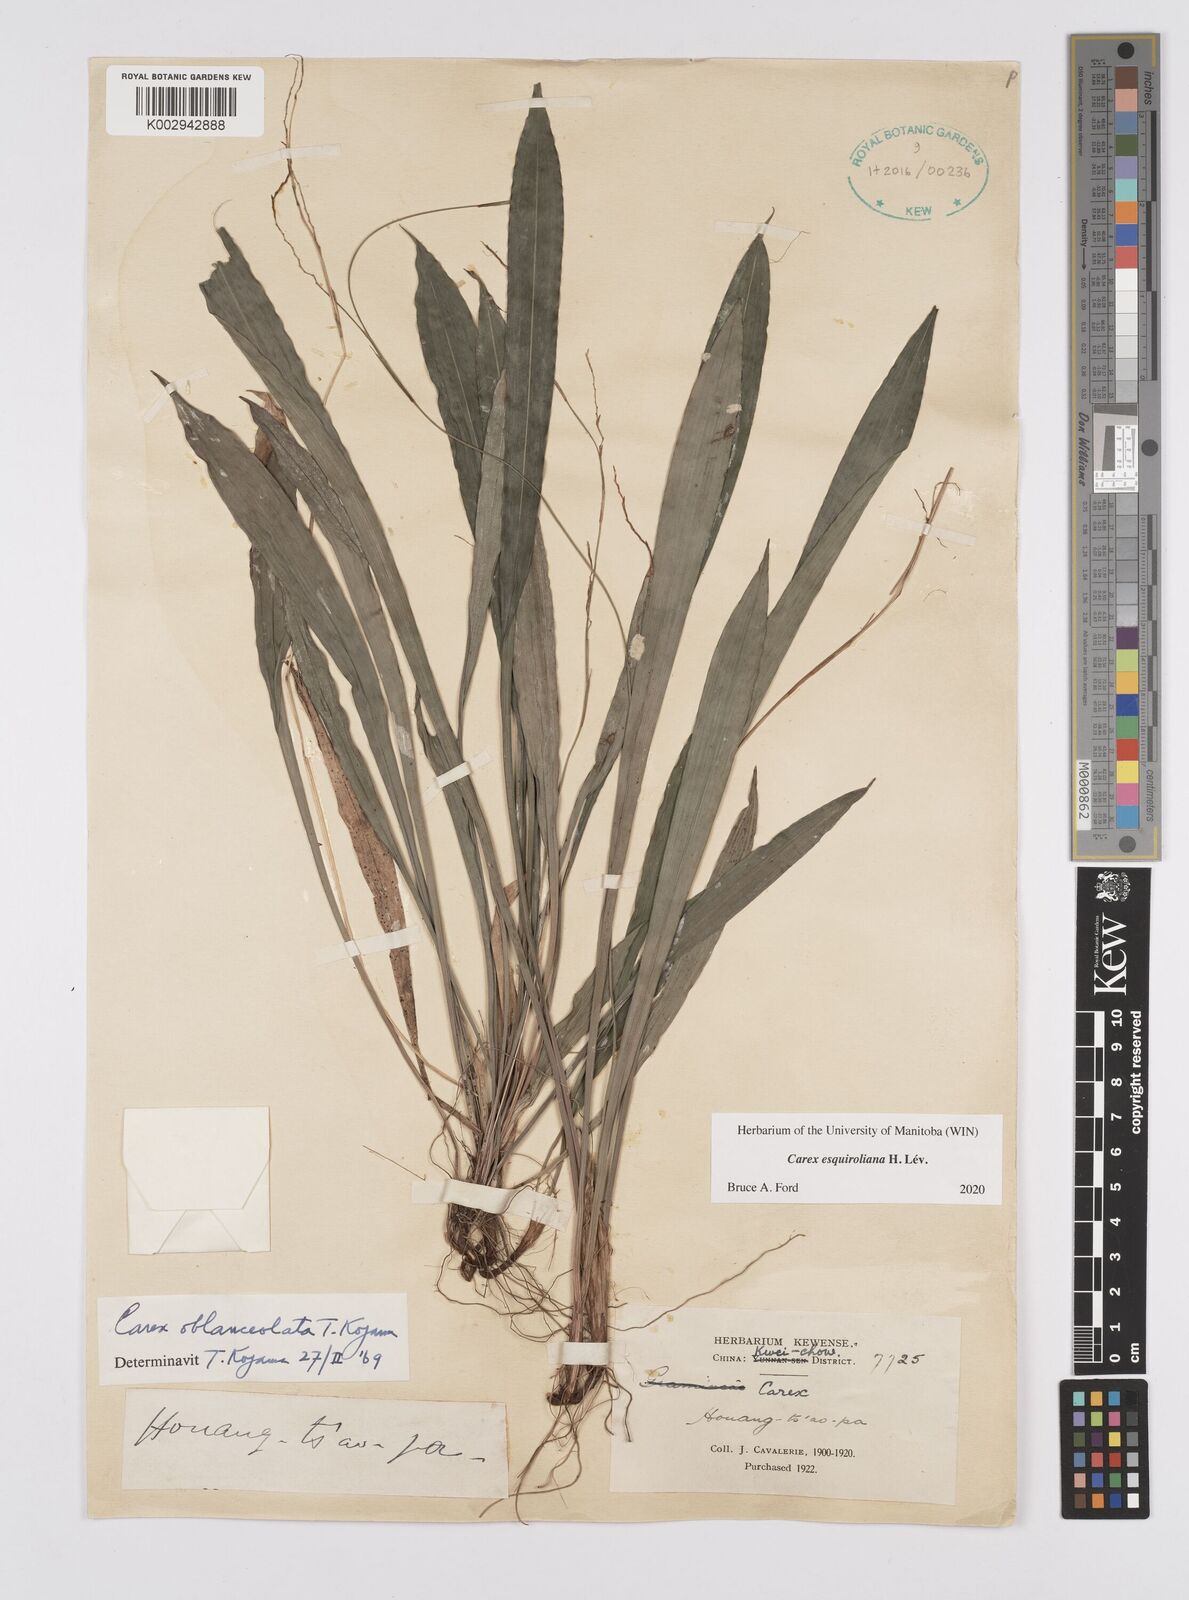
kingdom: Plantae
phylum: Tracheophyta
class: Liliopsida
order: Poales
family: Cyperaceae
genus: Carex
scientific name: Carex esquiroliana
